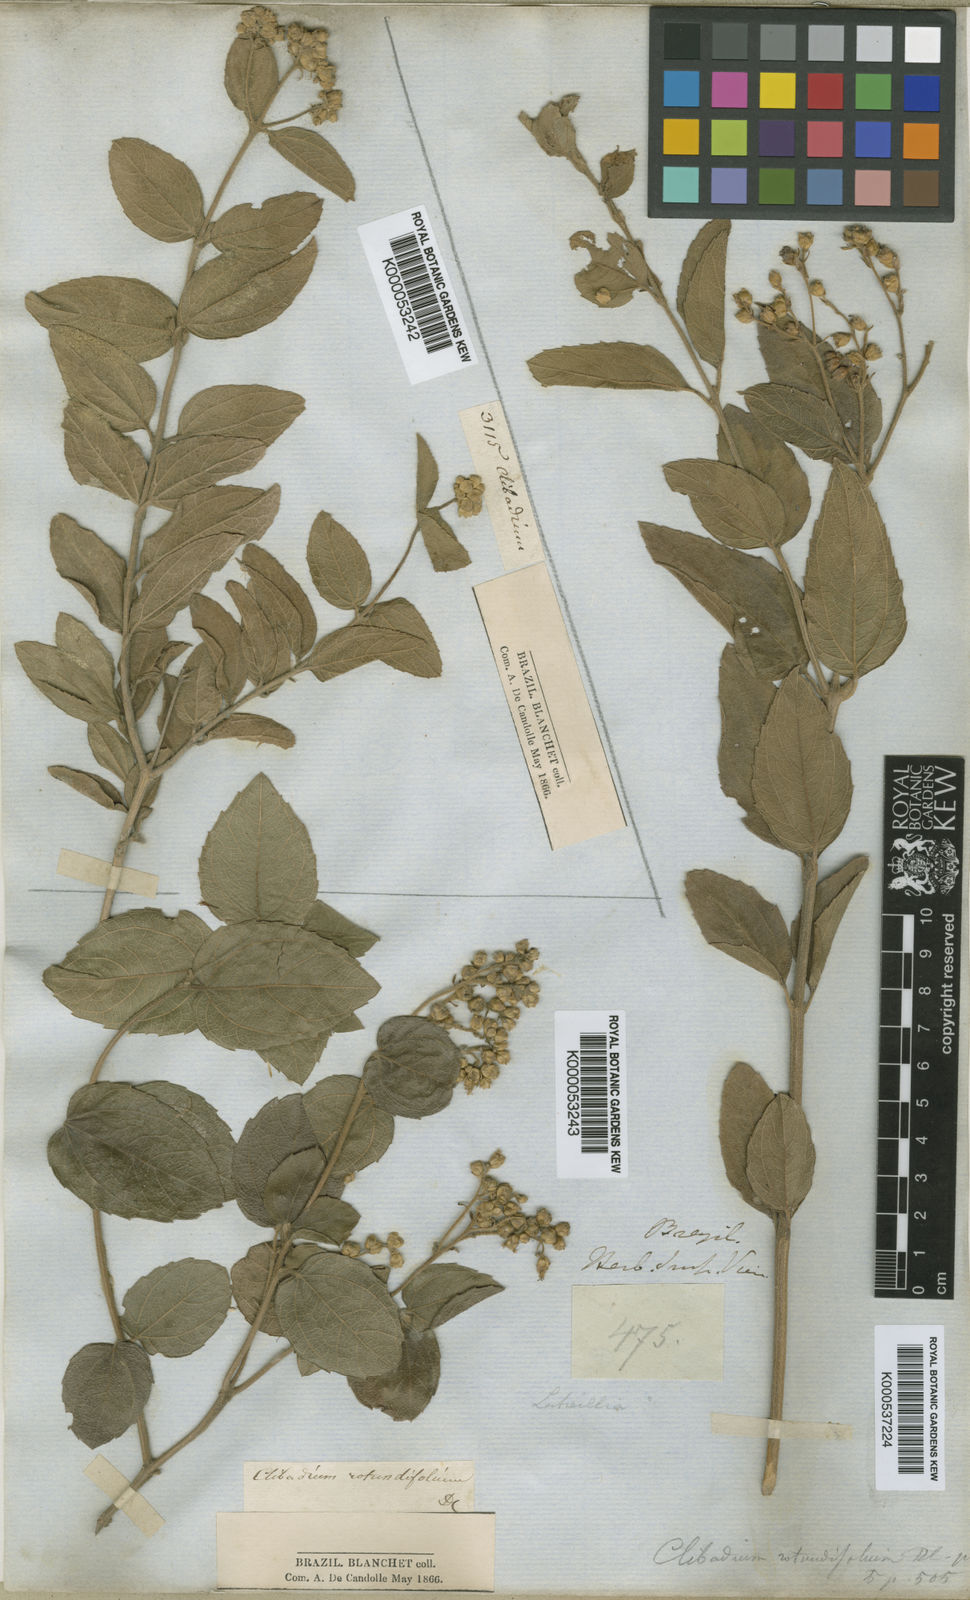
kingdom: Plantae
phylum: Tracheophyta
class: Magnoliopsida
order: Asterales
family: Asteraceae
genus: Clibadium
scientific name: Clibadium armanii
